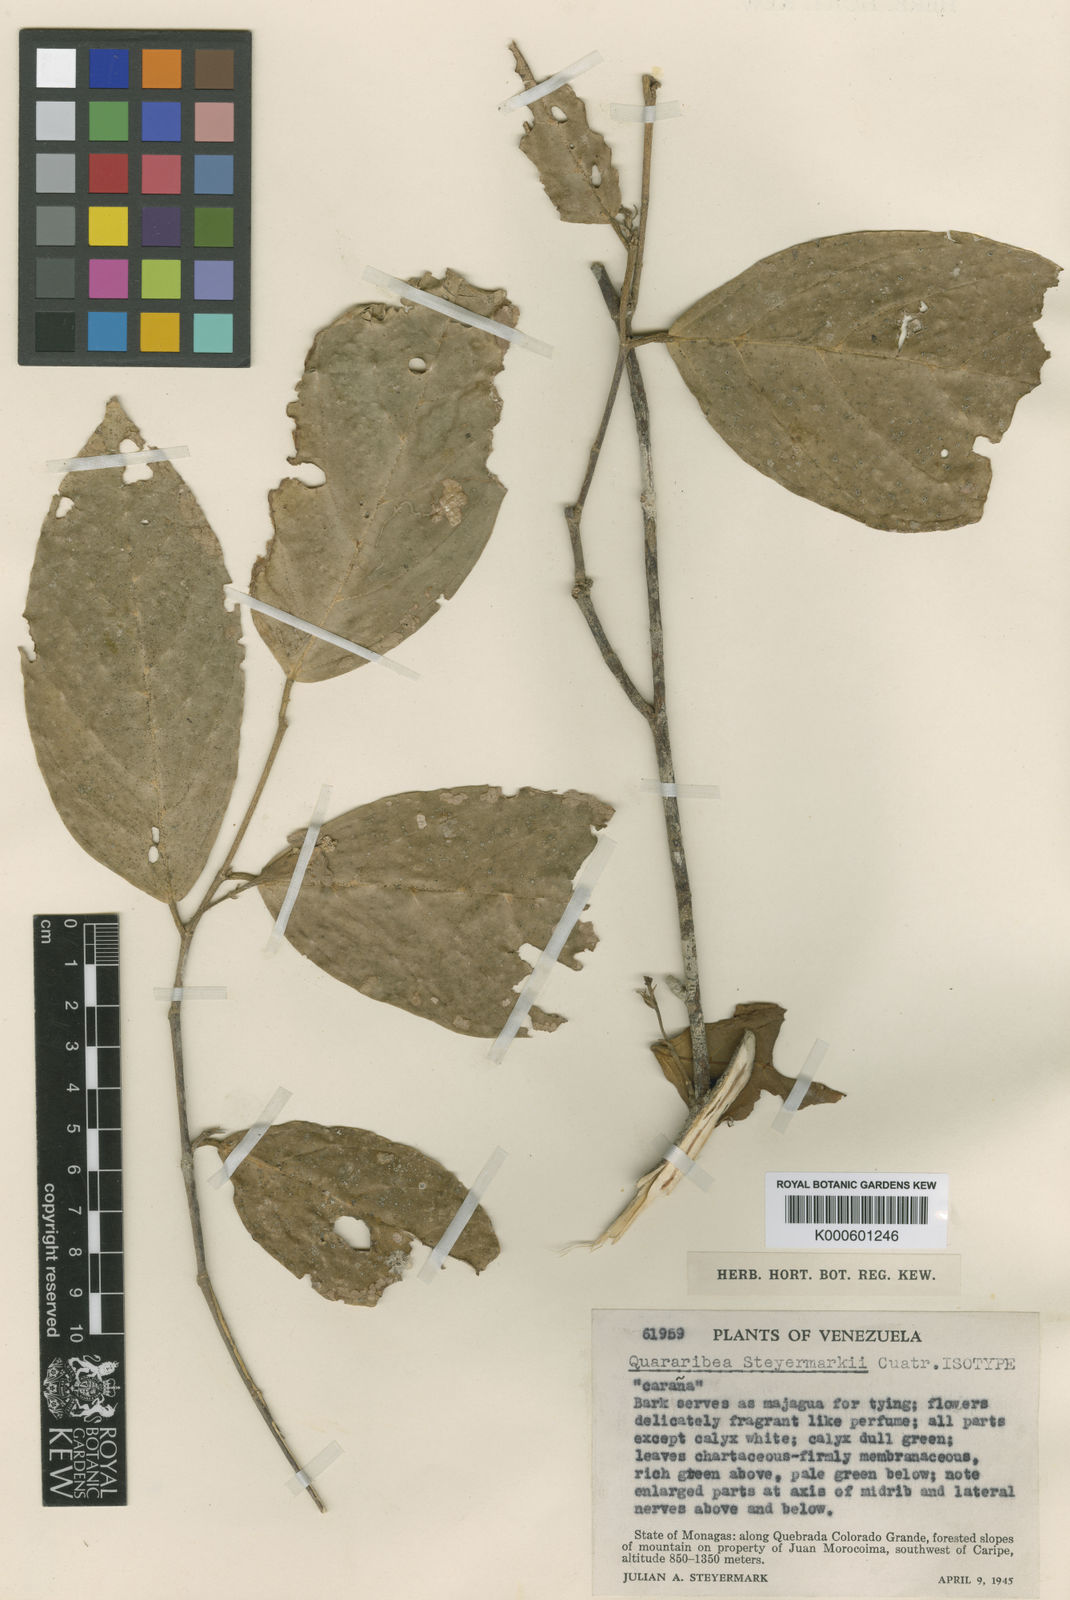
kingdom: Plantae
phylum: Tracheophyta
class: Magnoliopsida
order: Malvales
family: Malvaceae
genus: Quararibea
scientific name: Quararibea steyermarkii
